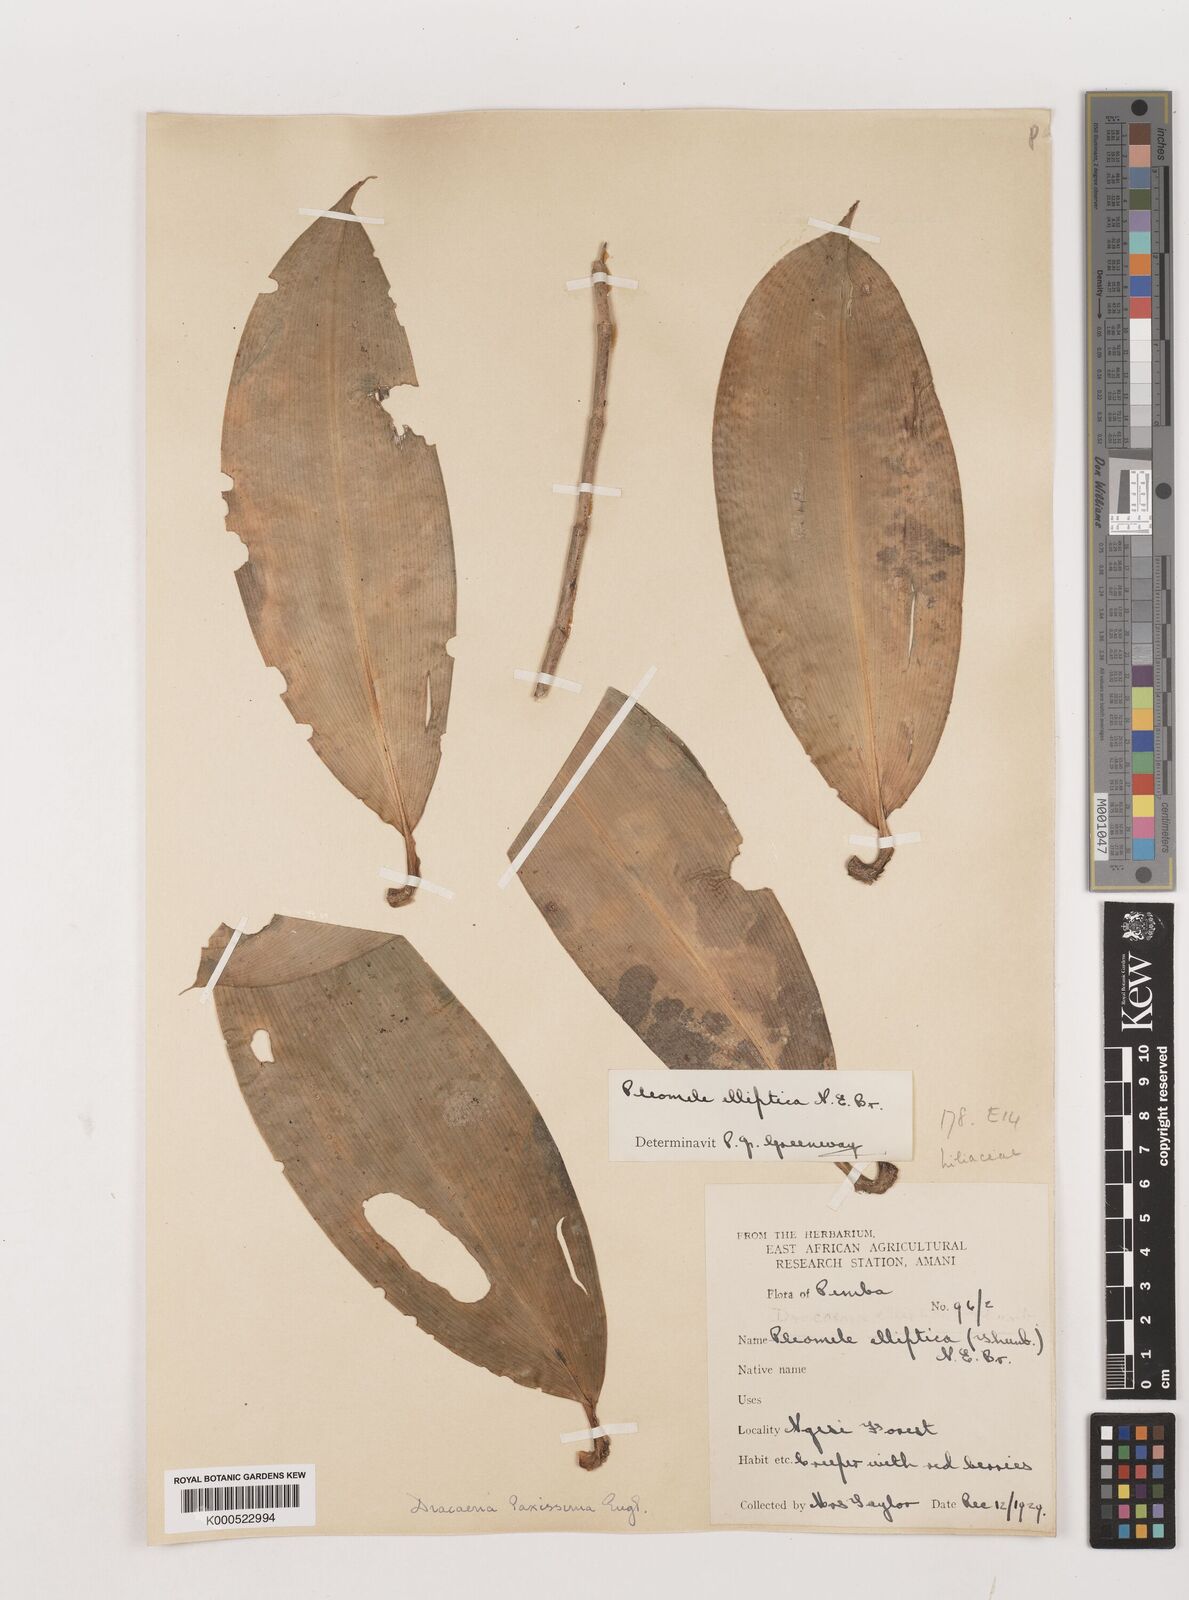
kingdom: Plantae
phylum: Tracheophyta
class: Liliopsida
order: Asparagales
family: Asparagaceae
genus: Dracaena
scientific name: Dracaena laxissima
